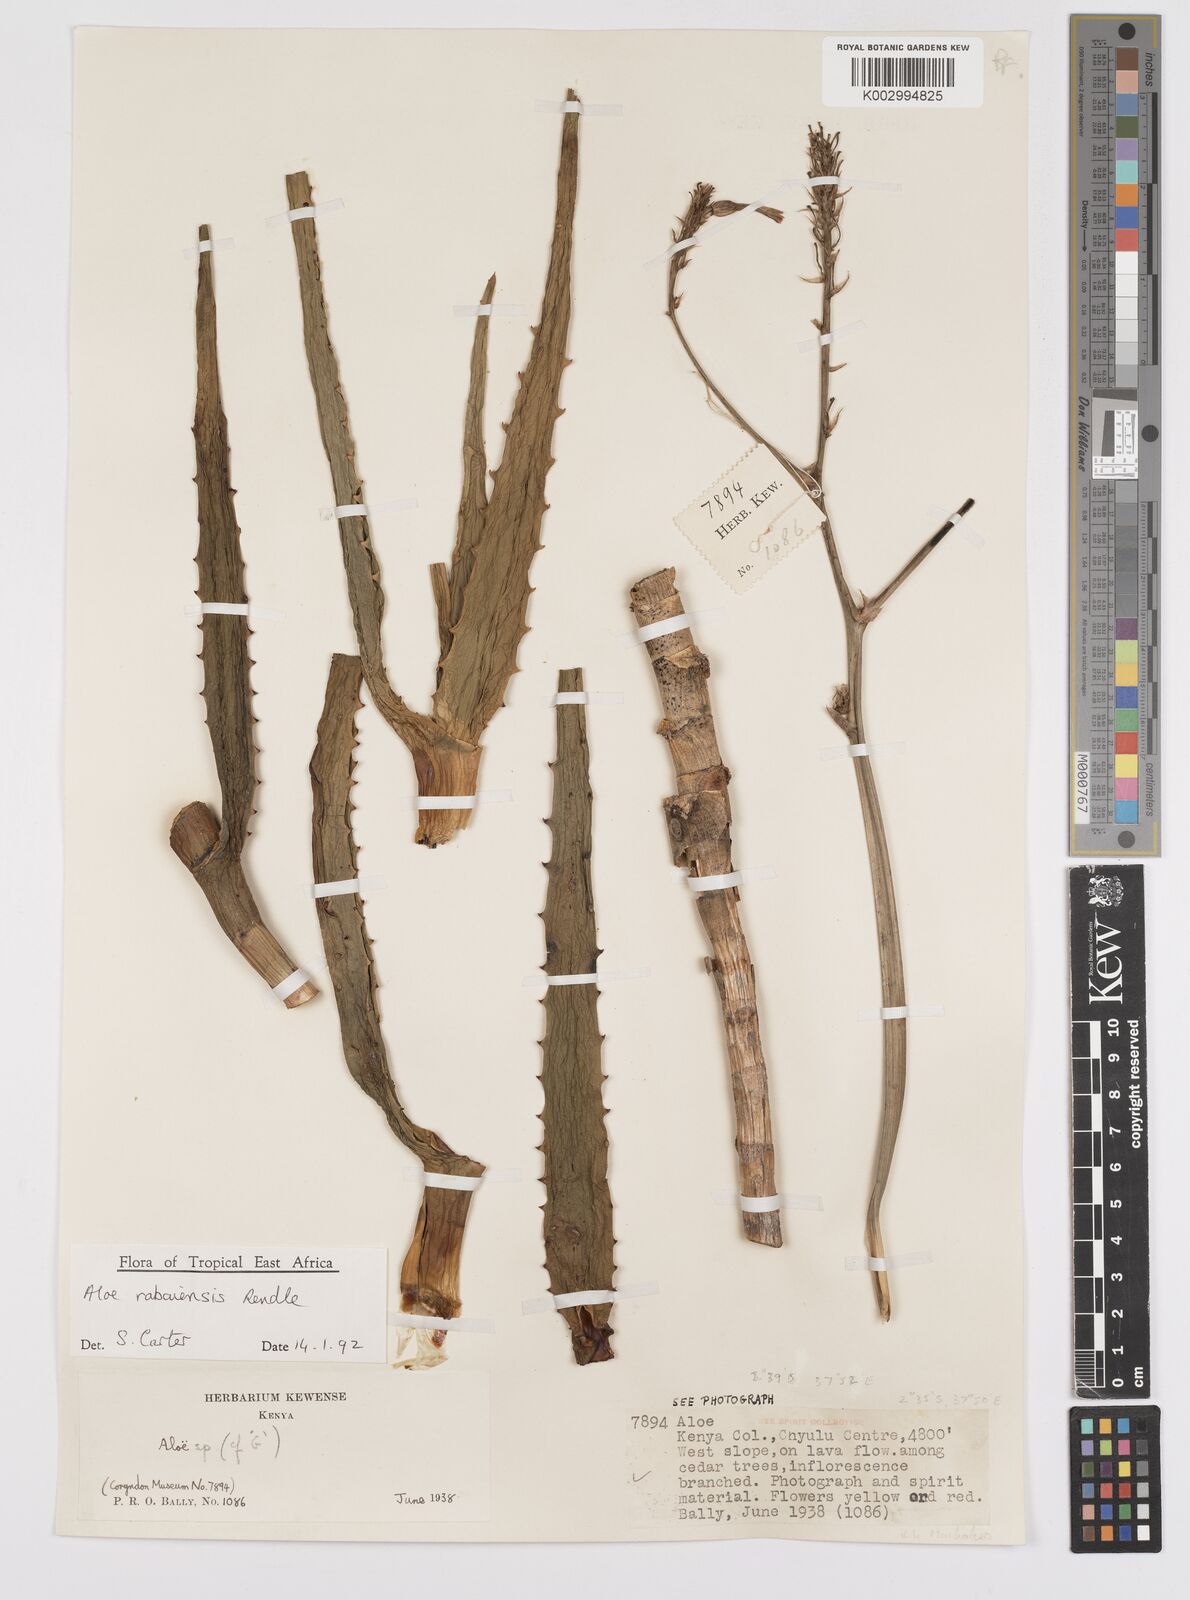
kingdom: Plantae
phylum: Tracheophyta
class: Liliopsida
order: Asparagales
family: Asphodelaceae
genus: Aloe
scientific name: Aloe rabaiensis
